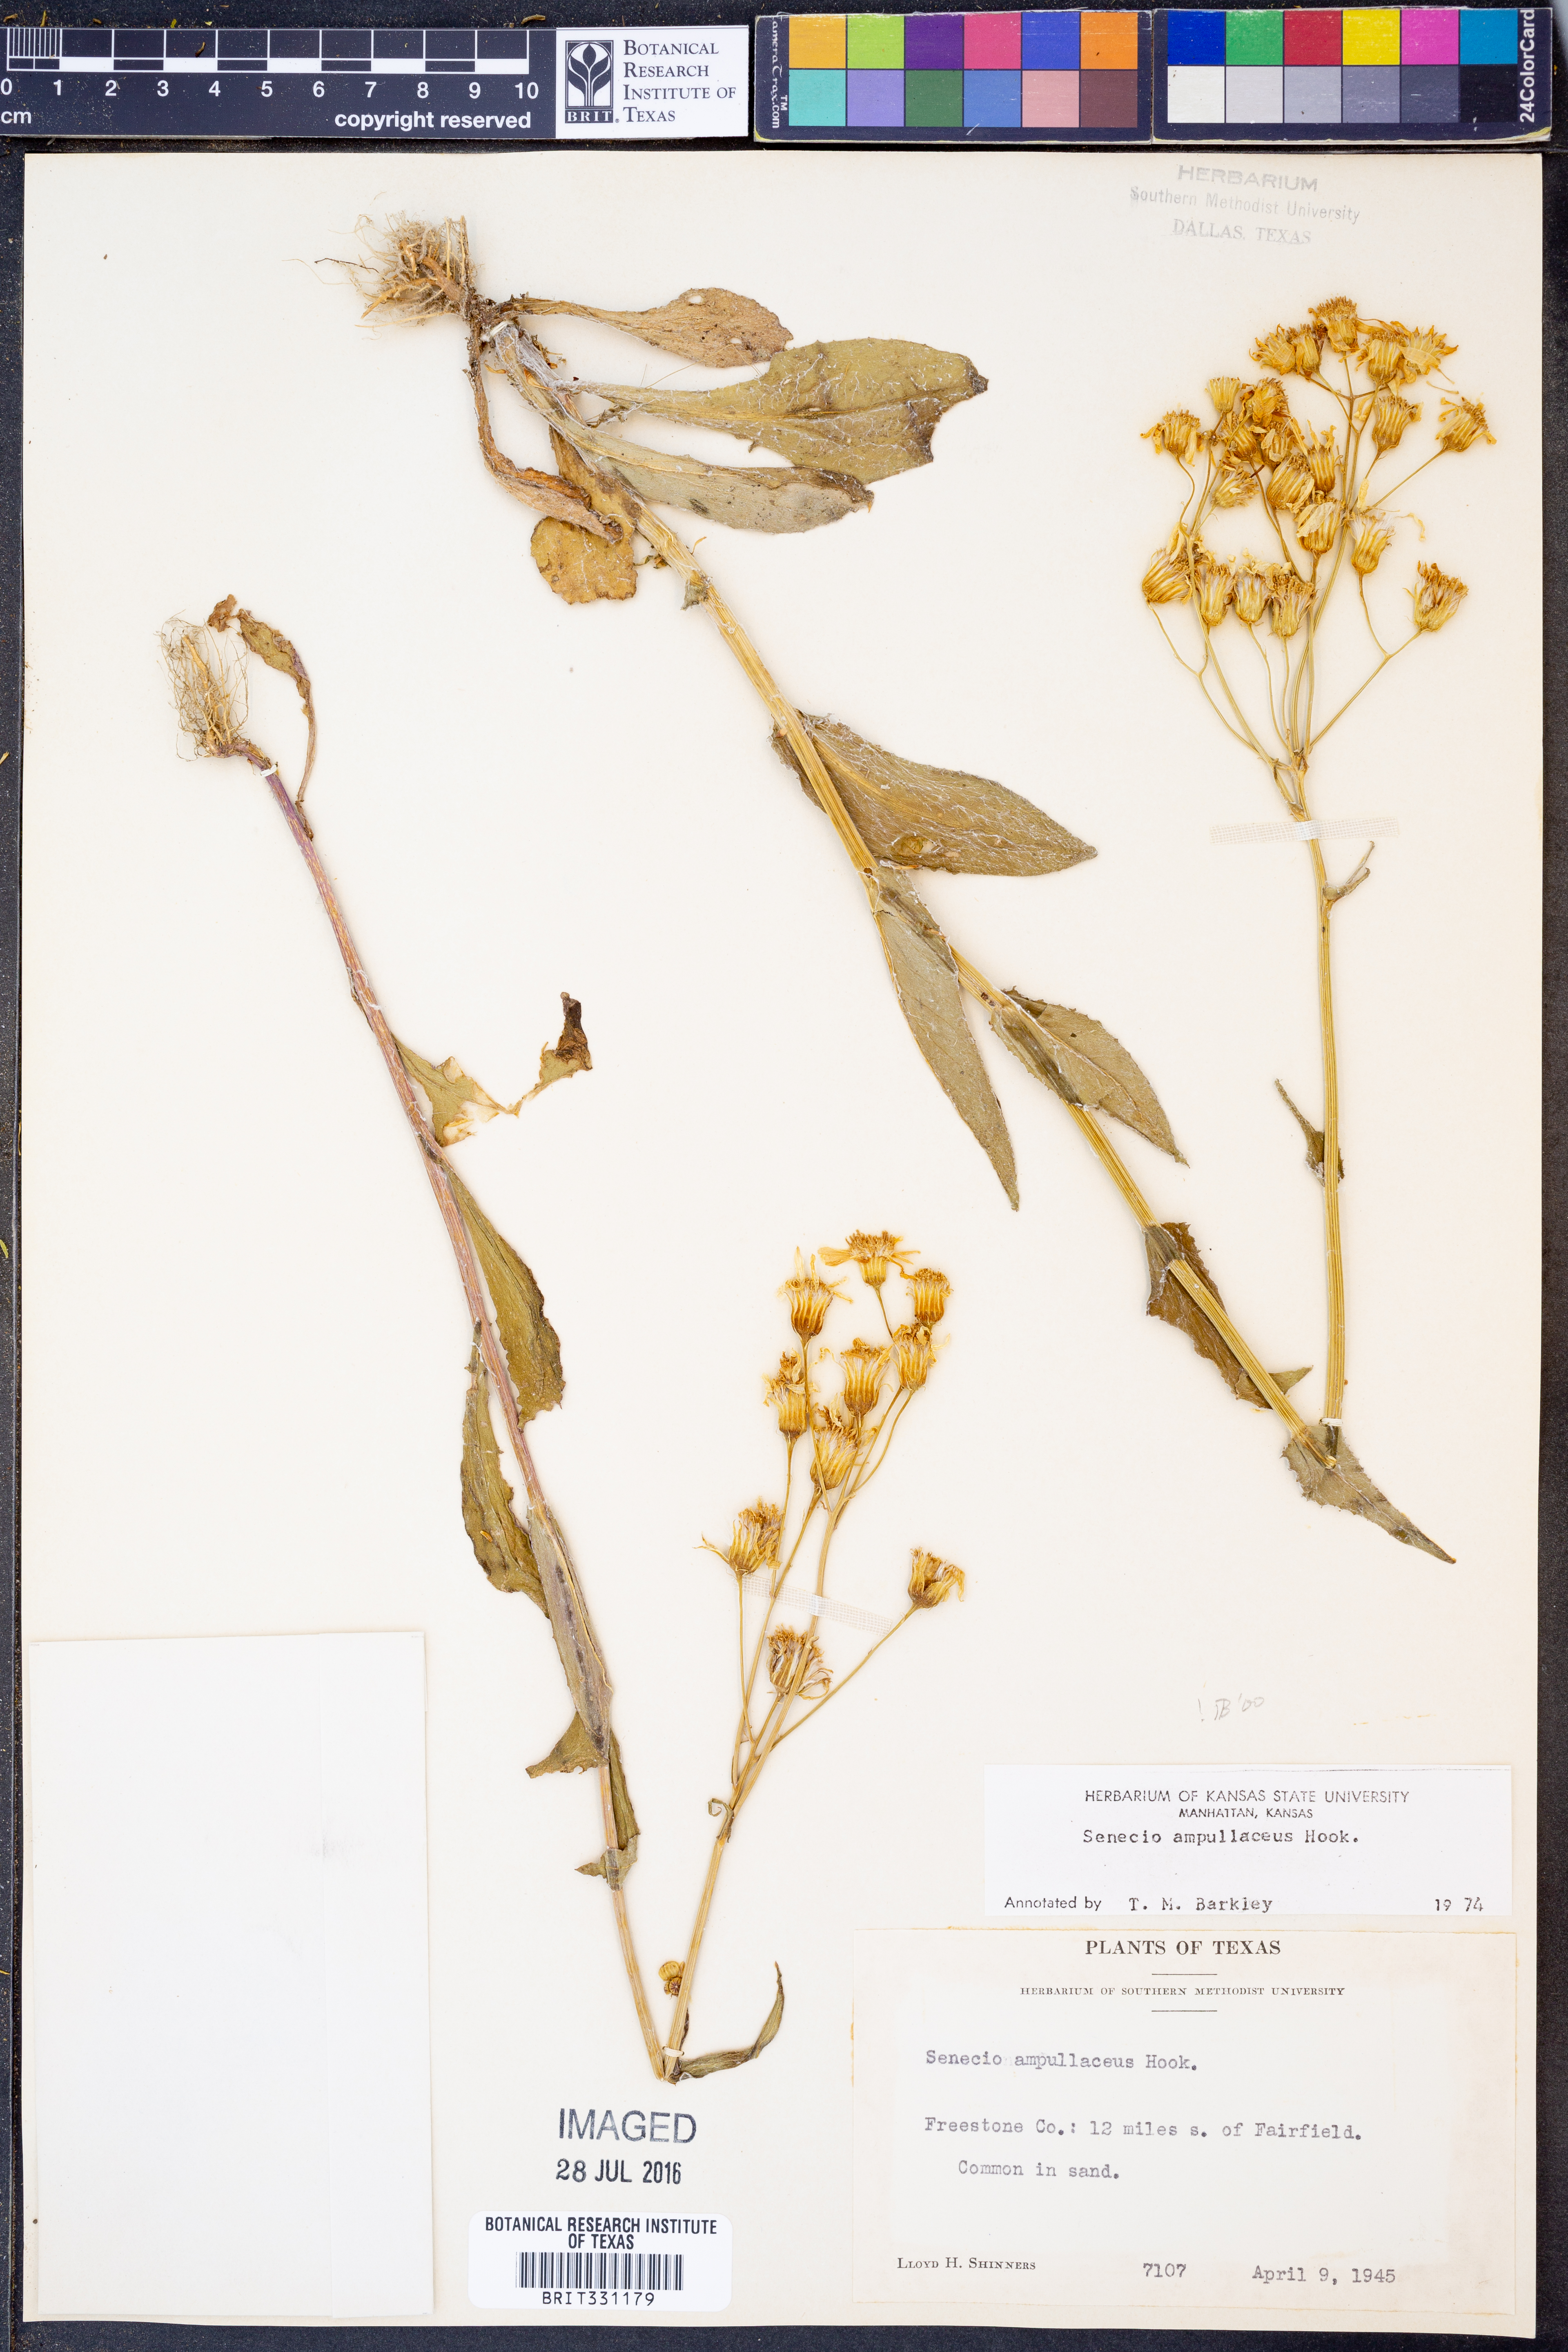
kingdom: Plantae
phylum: Tracheophyta
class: Magnoliopsida
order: Asterales
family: Asteraceae
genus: Senecio
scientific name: Senecio ampullaceus
